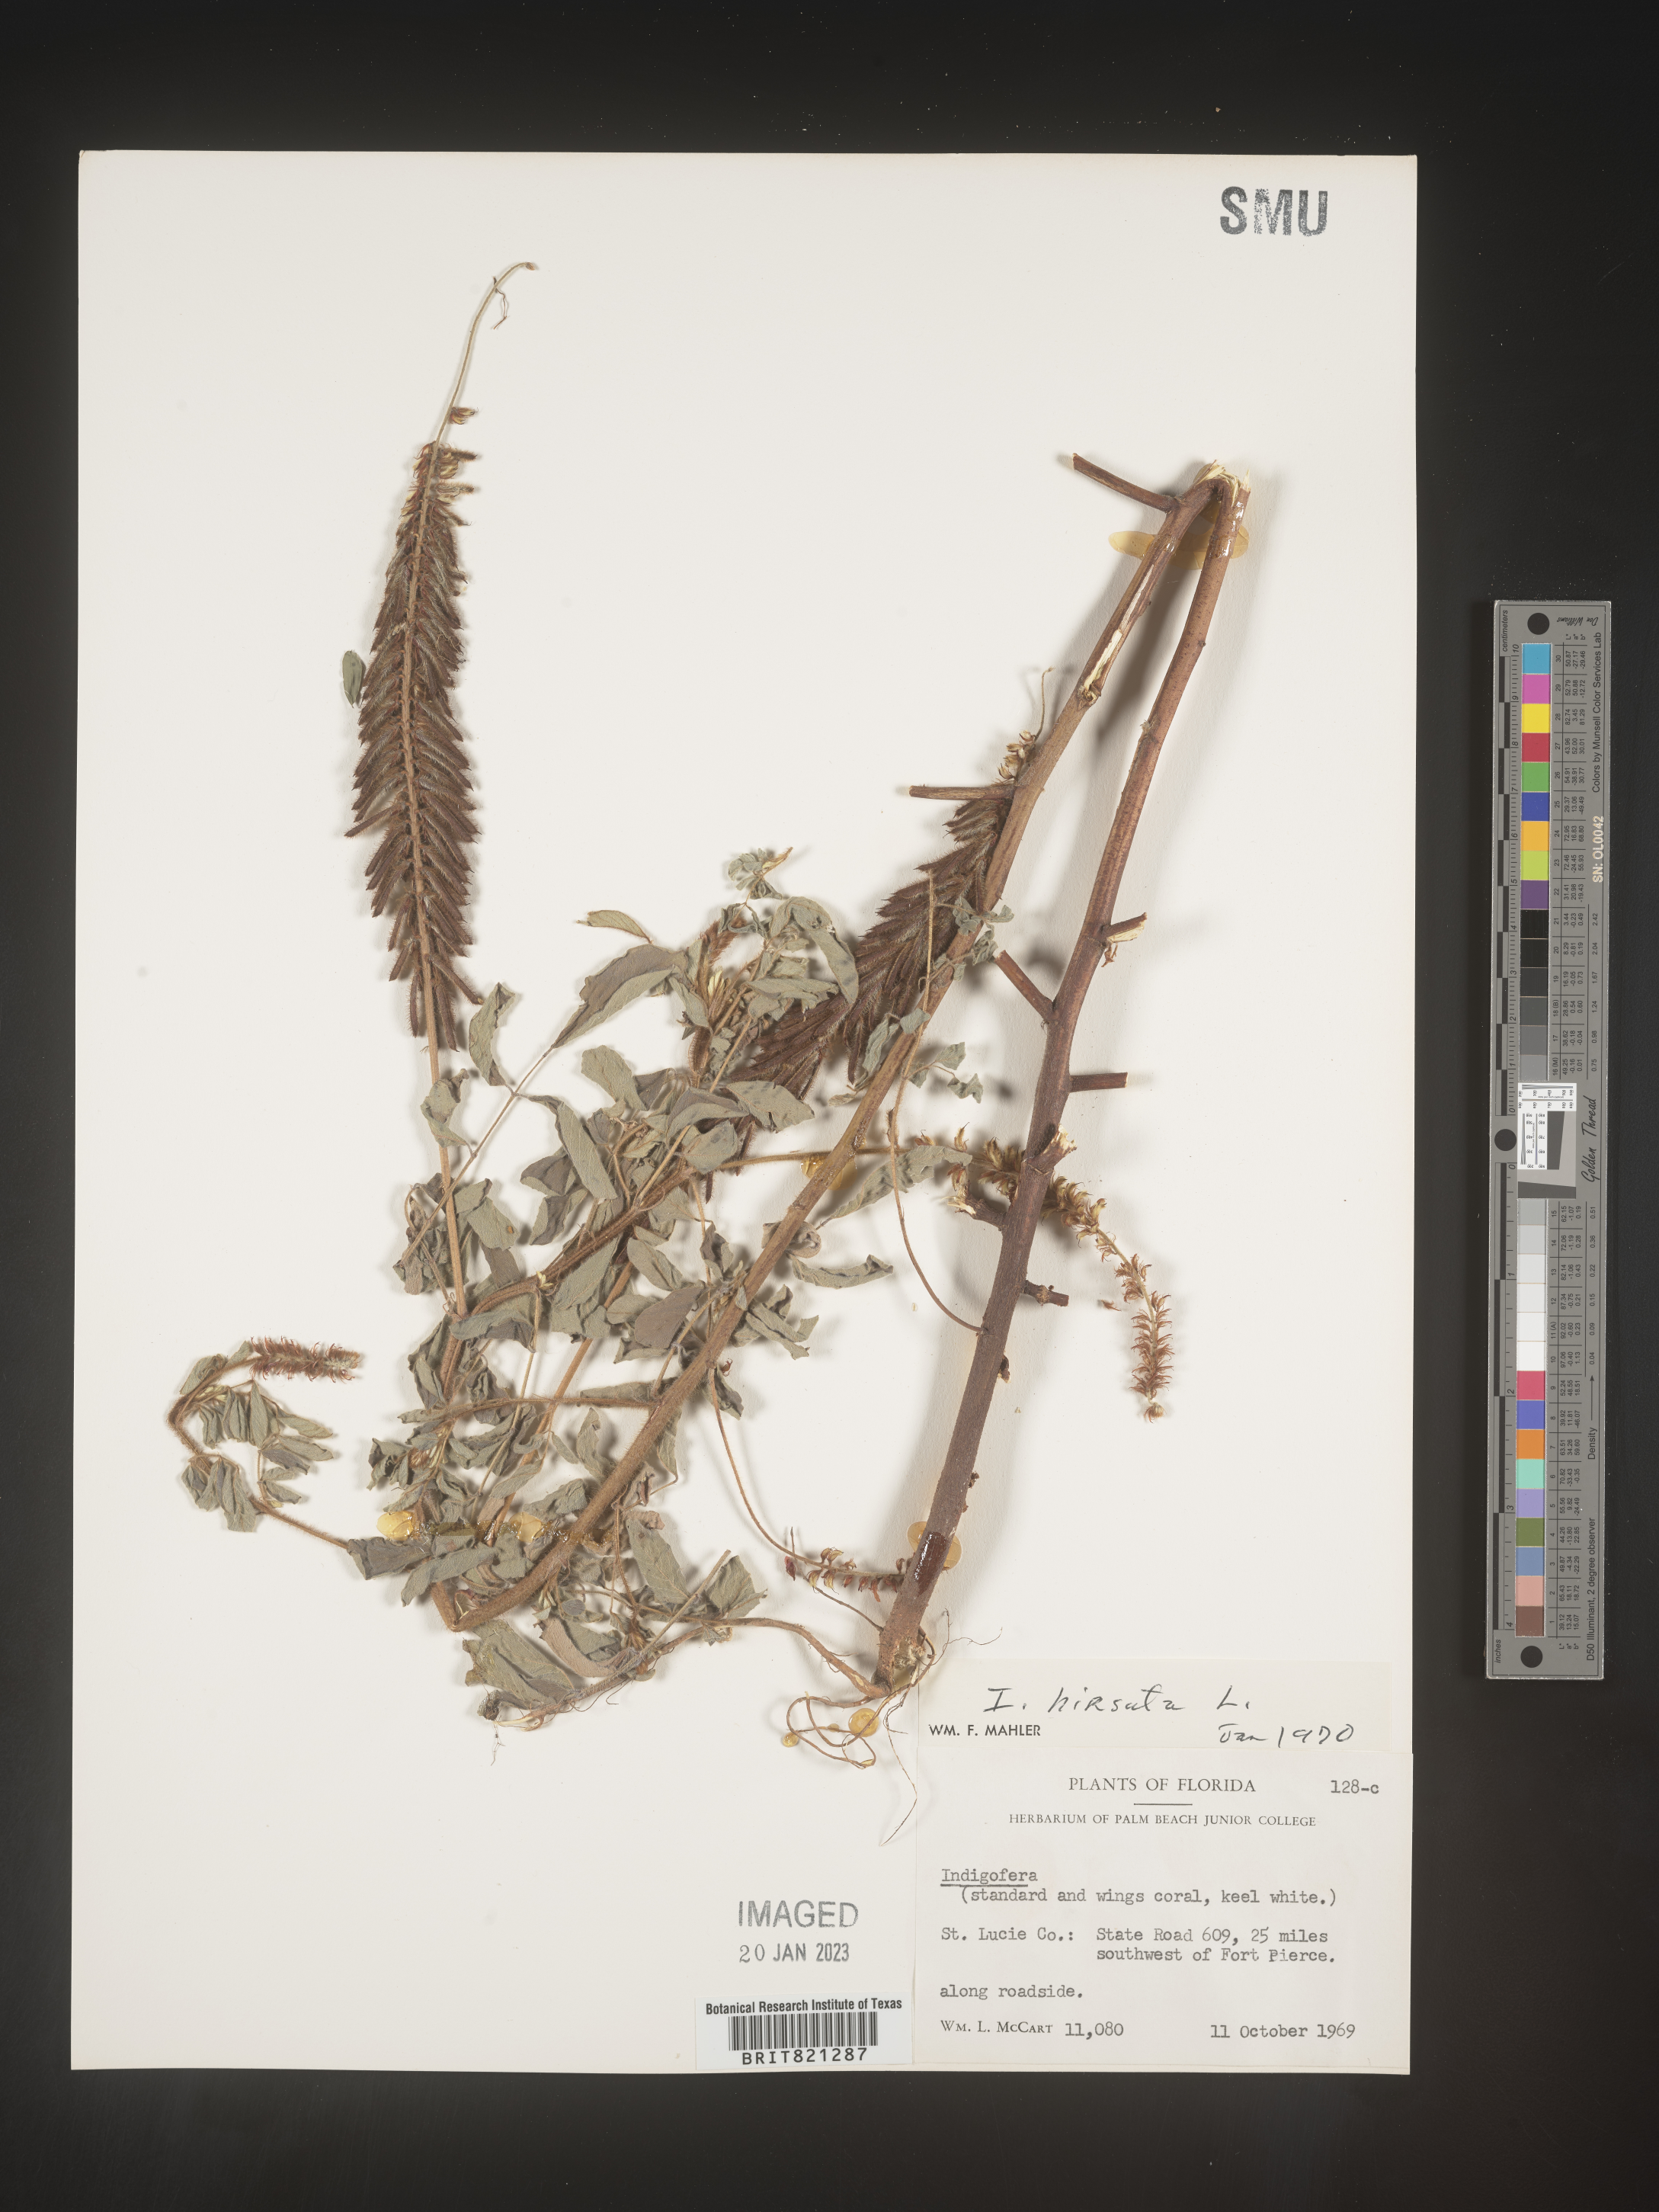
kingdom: Plantae
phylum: Tracheophyta
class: Magnoliopsida
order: Fabales
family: Fabaceae
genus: Indigofera
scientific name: Indigofera
